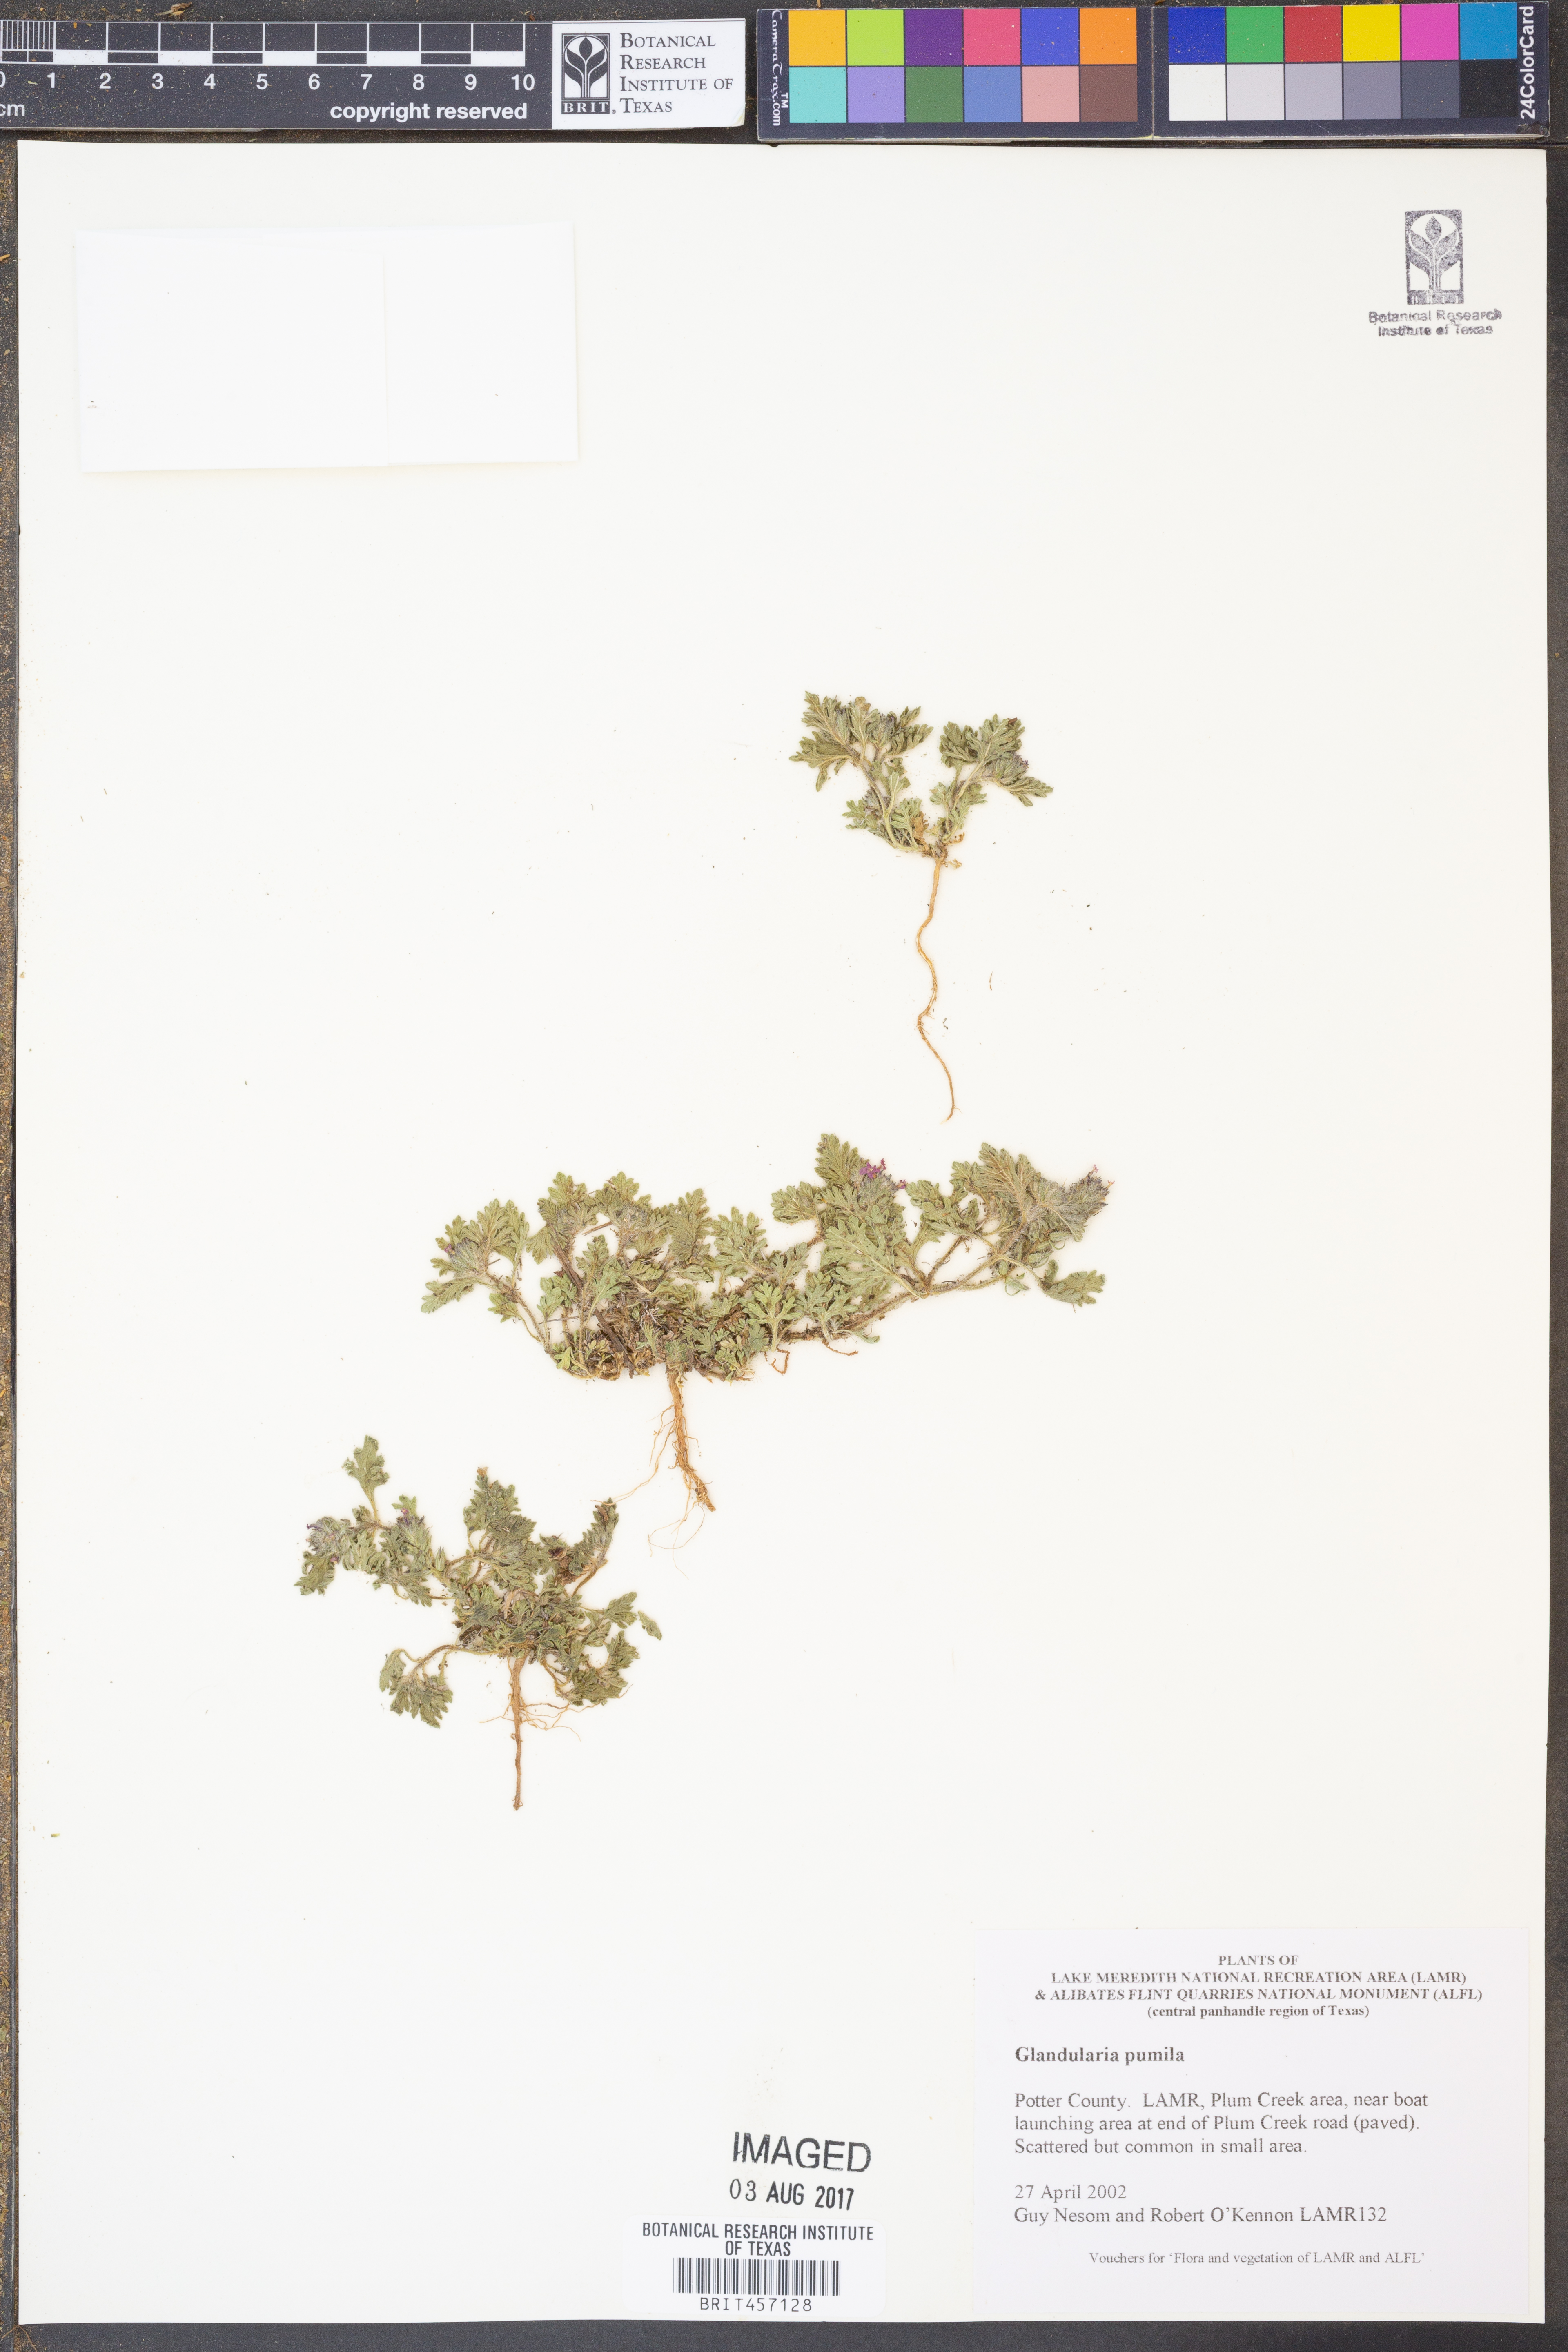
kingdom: Plantae
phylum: Tracheophyta
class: Magnoliopsida
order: Lamiales
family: Verbenaceae
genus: Verbena
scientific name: Verbena pumila
